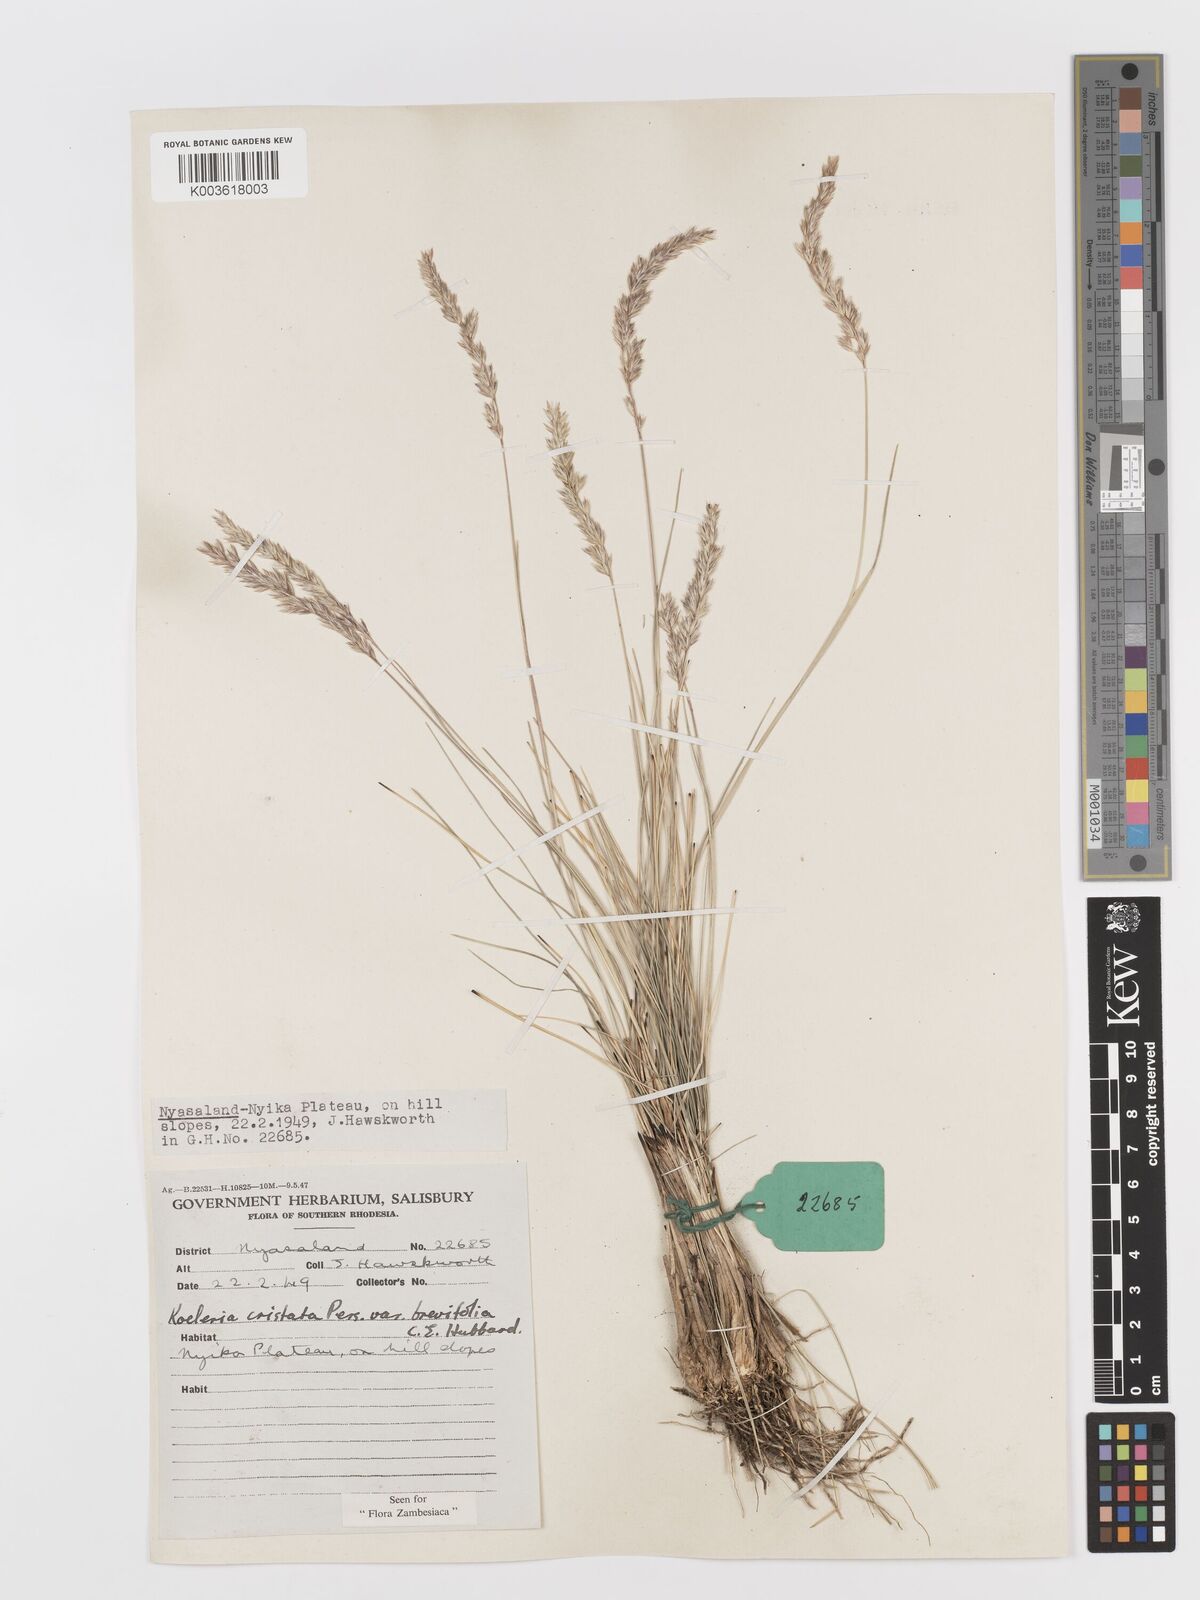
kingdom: Plantae
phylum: Tracheophyta
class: Liliopsida
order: Poales
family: Poaceae
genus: Koeleria
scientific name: Koeleria capensis
